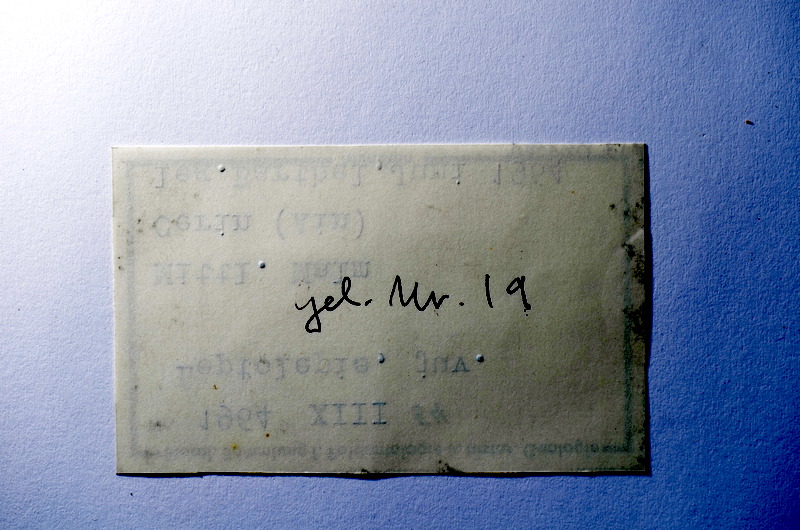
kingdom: Animalia
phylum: Chordata
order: Salmoniformes
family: Orthogonikleithridae
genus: Leptolepides
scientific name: Leptolepides
